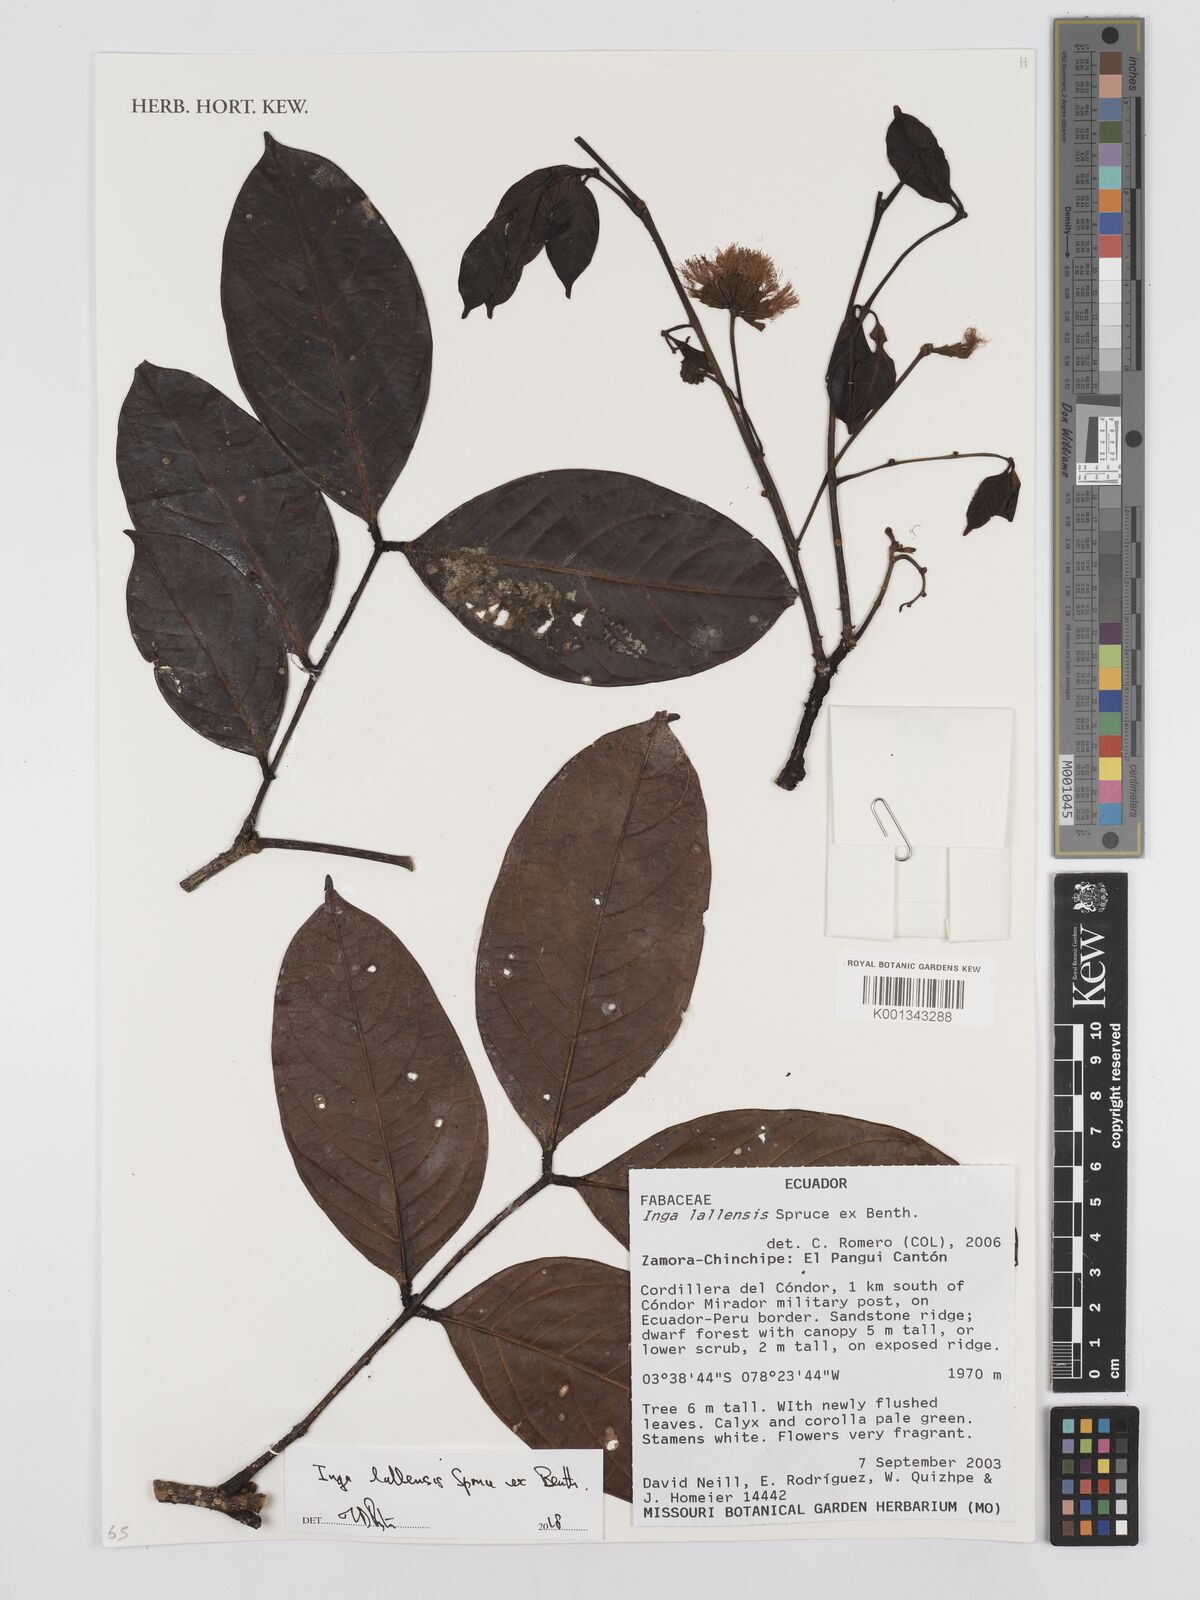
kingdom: Plantae
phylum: Tracheophyta
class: Magnoliopsida
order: Fabales
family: Fabaceae
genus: Inga
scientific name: Inga lallensis
